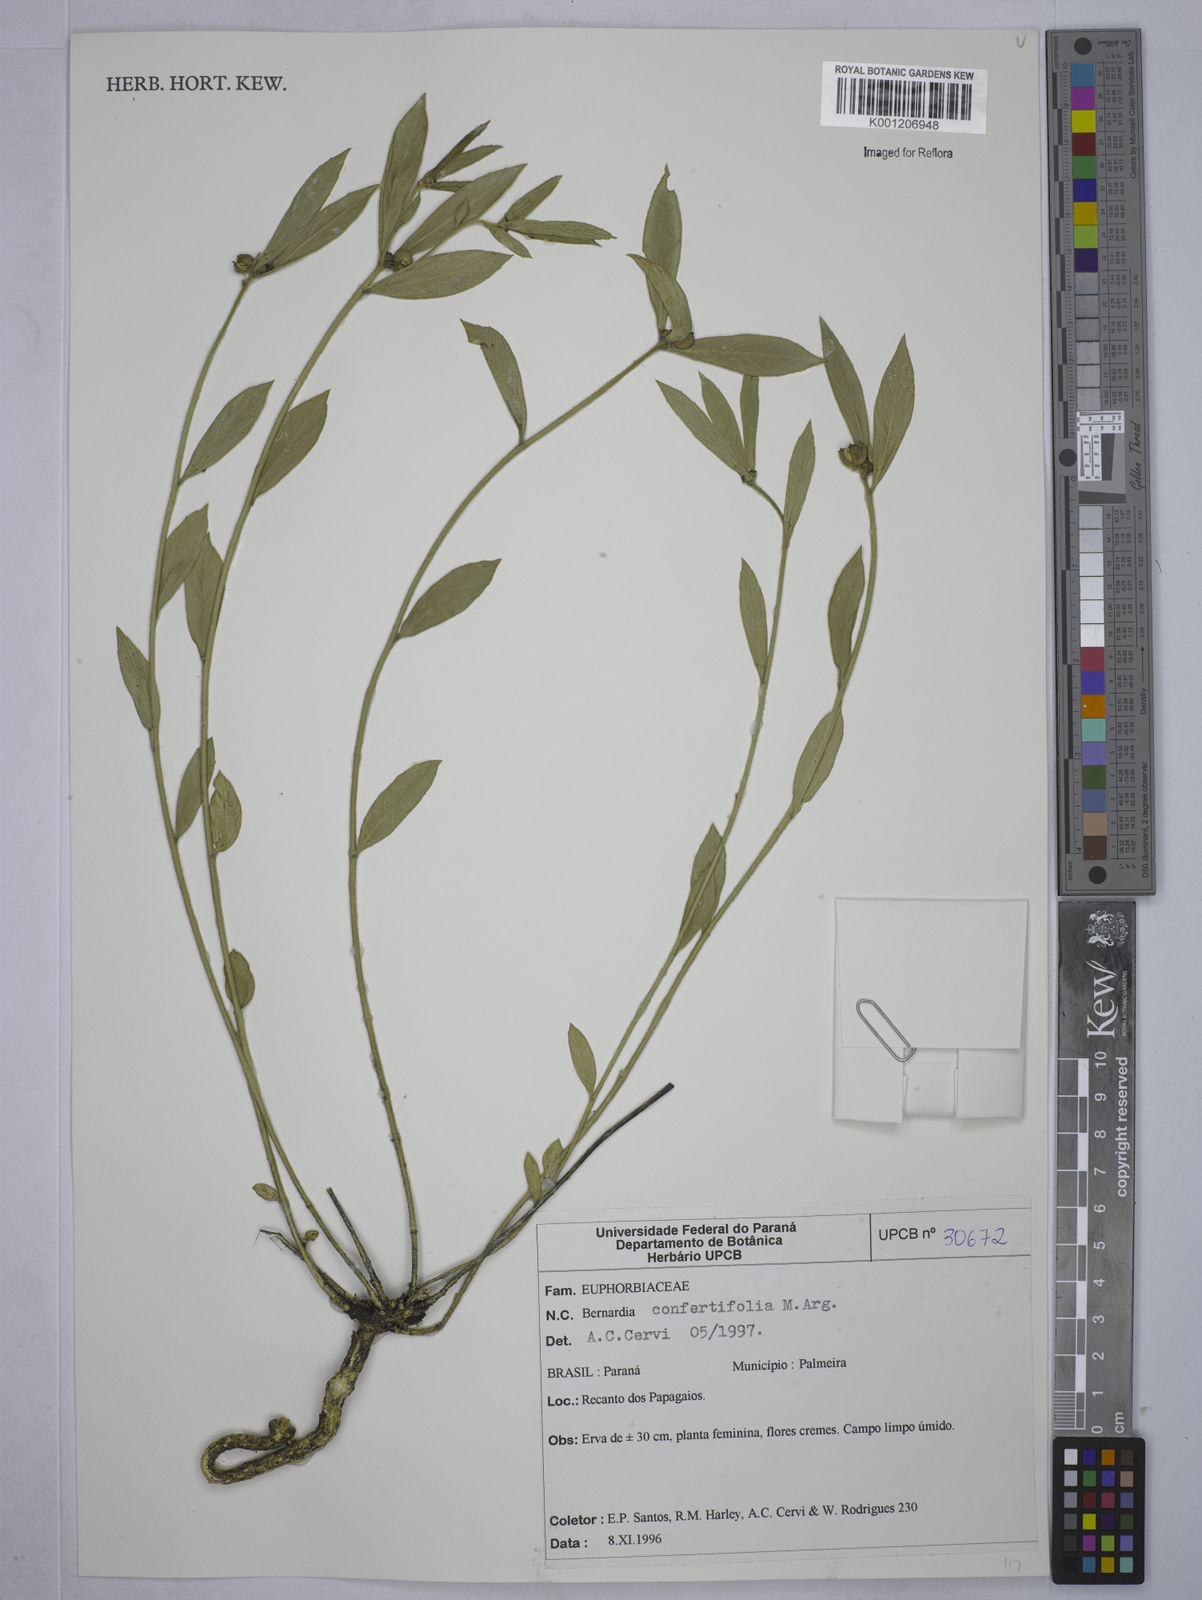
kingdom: Plantae
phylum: Tracheophyta
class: Magnoliopsida
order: Malpighiales
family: Euphorbiaceae
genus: Bernardia
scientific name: Bernardia sellowii
